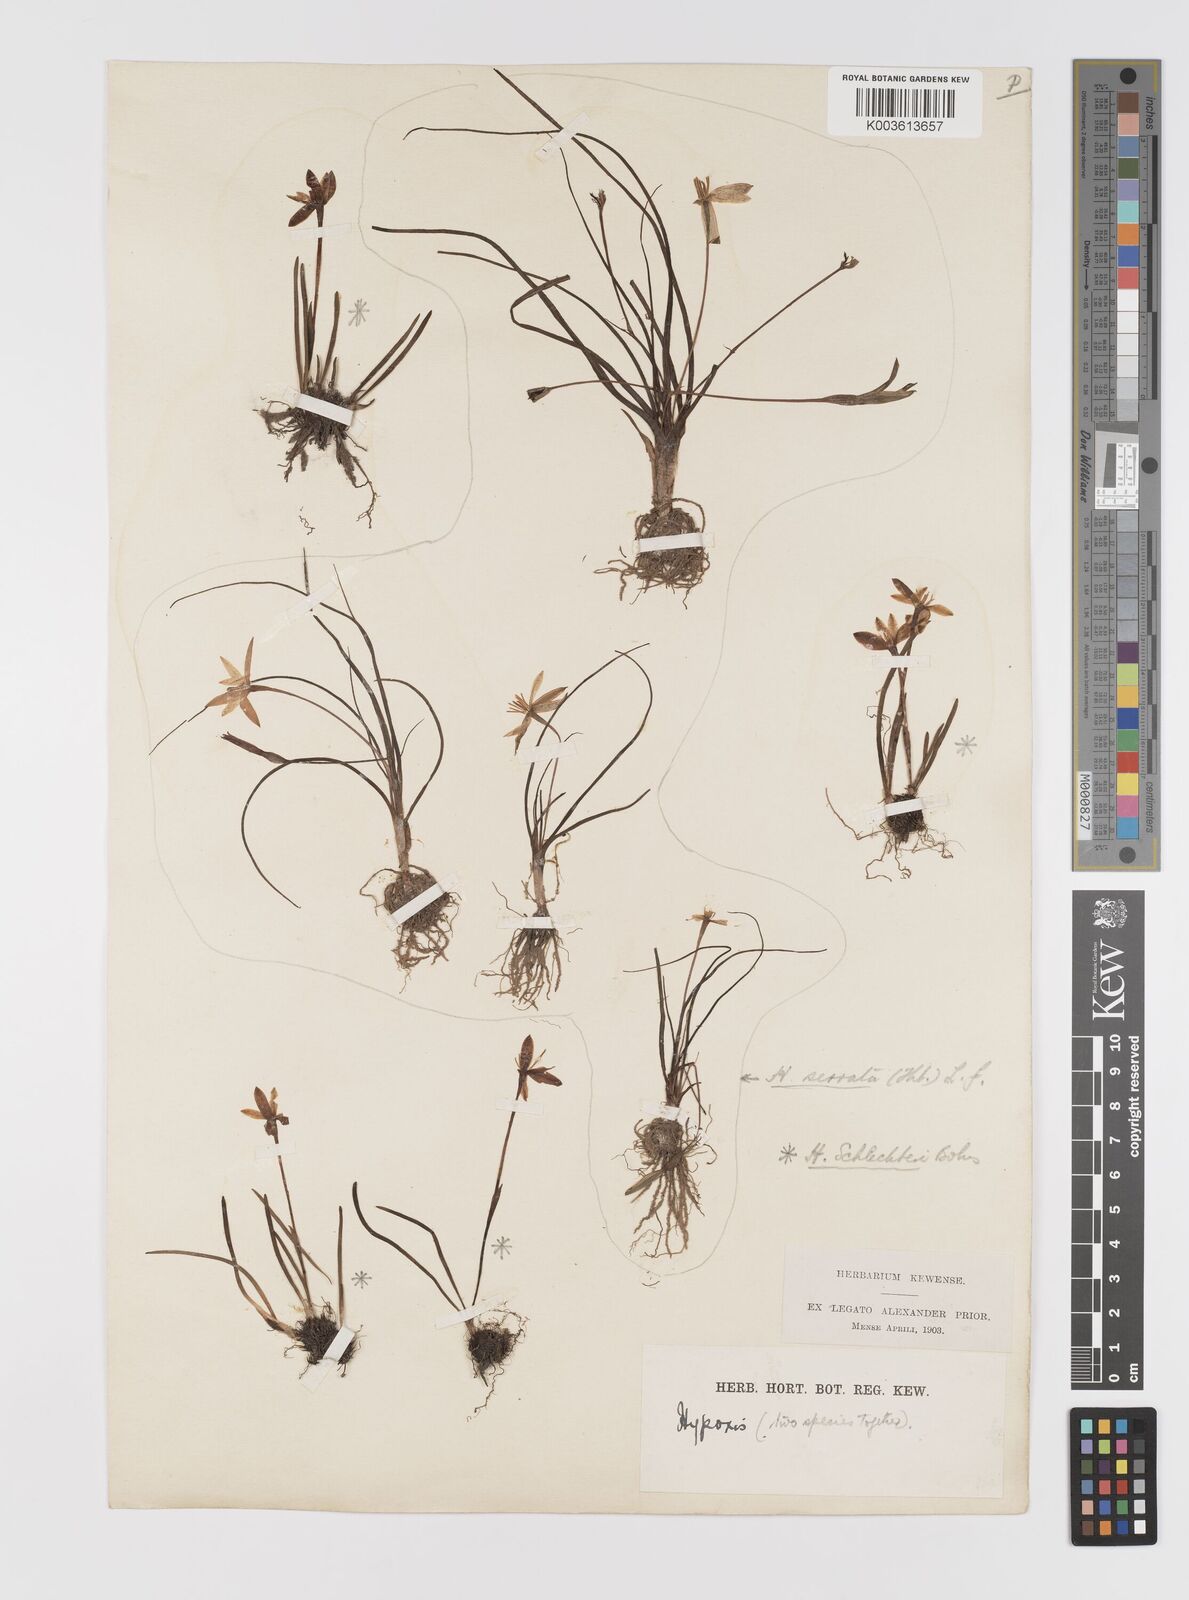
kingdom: Plantae
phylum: Tracheophyta
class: Liliopsida
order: Asparagales
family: Hypoxidaceae
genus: Pauridia
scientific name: Pauridia
